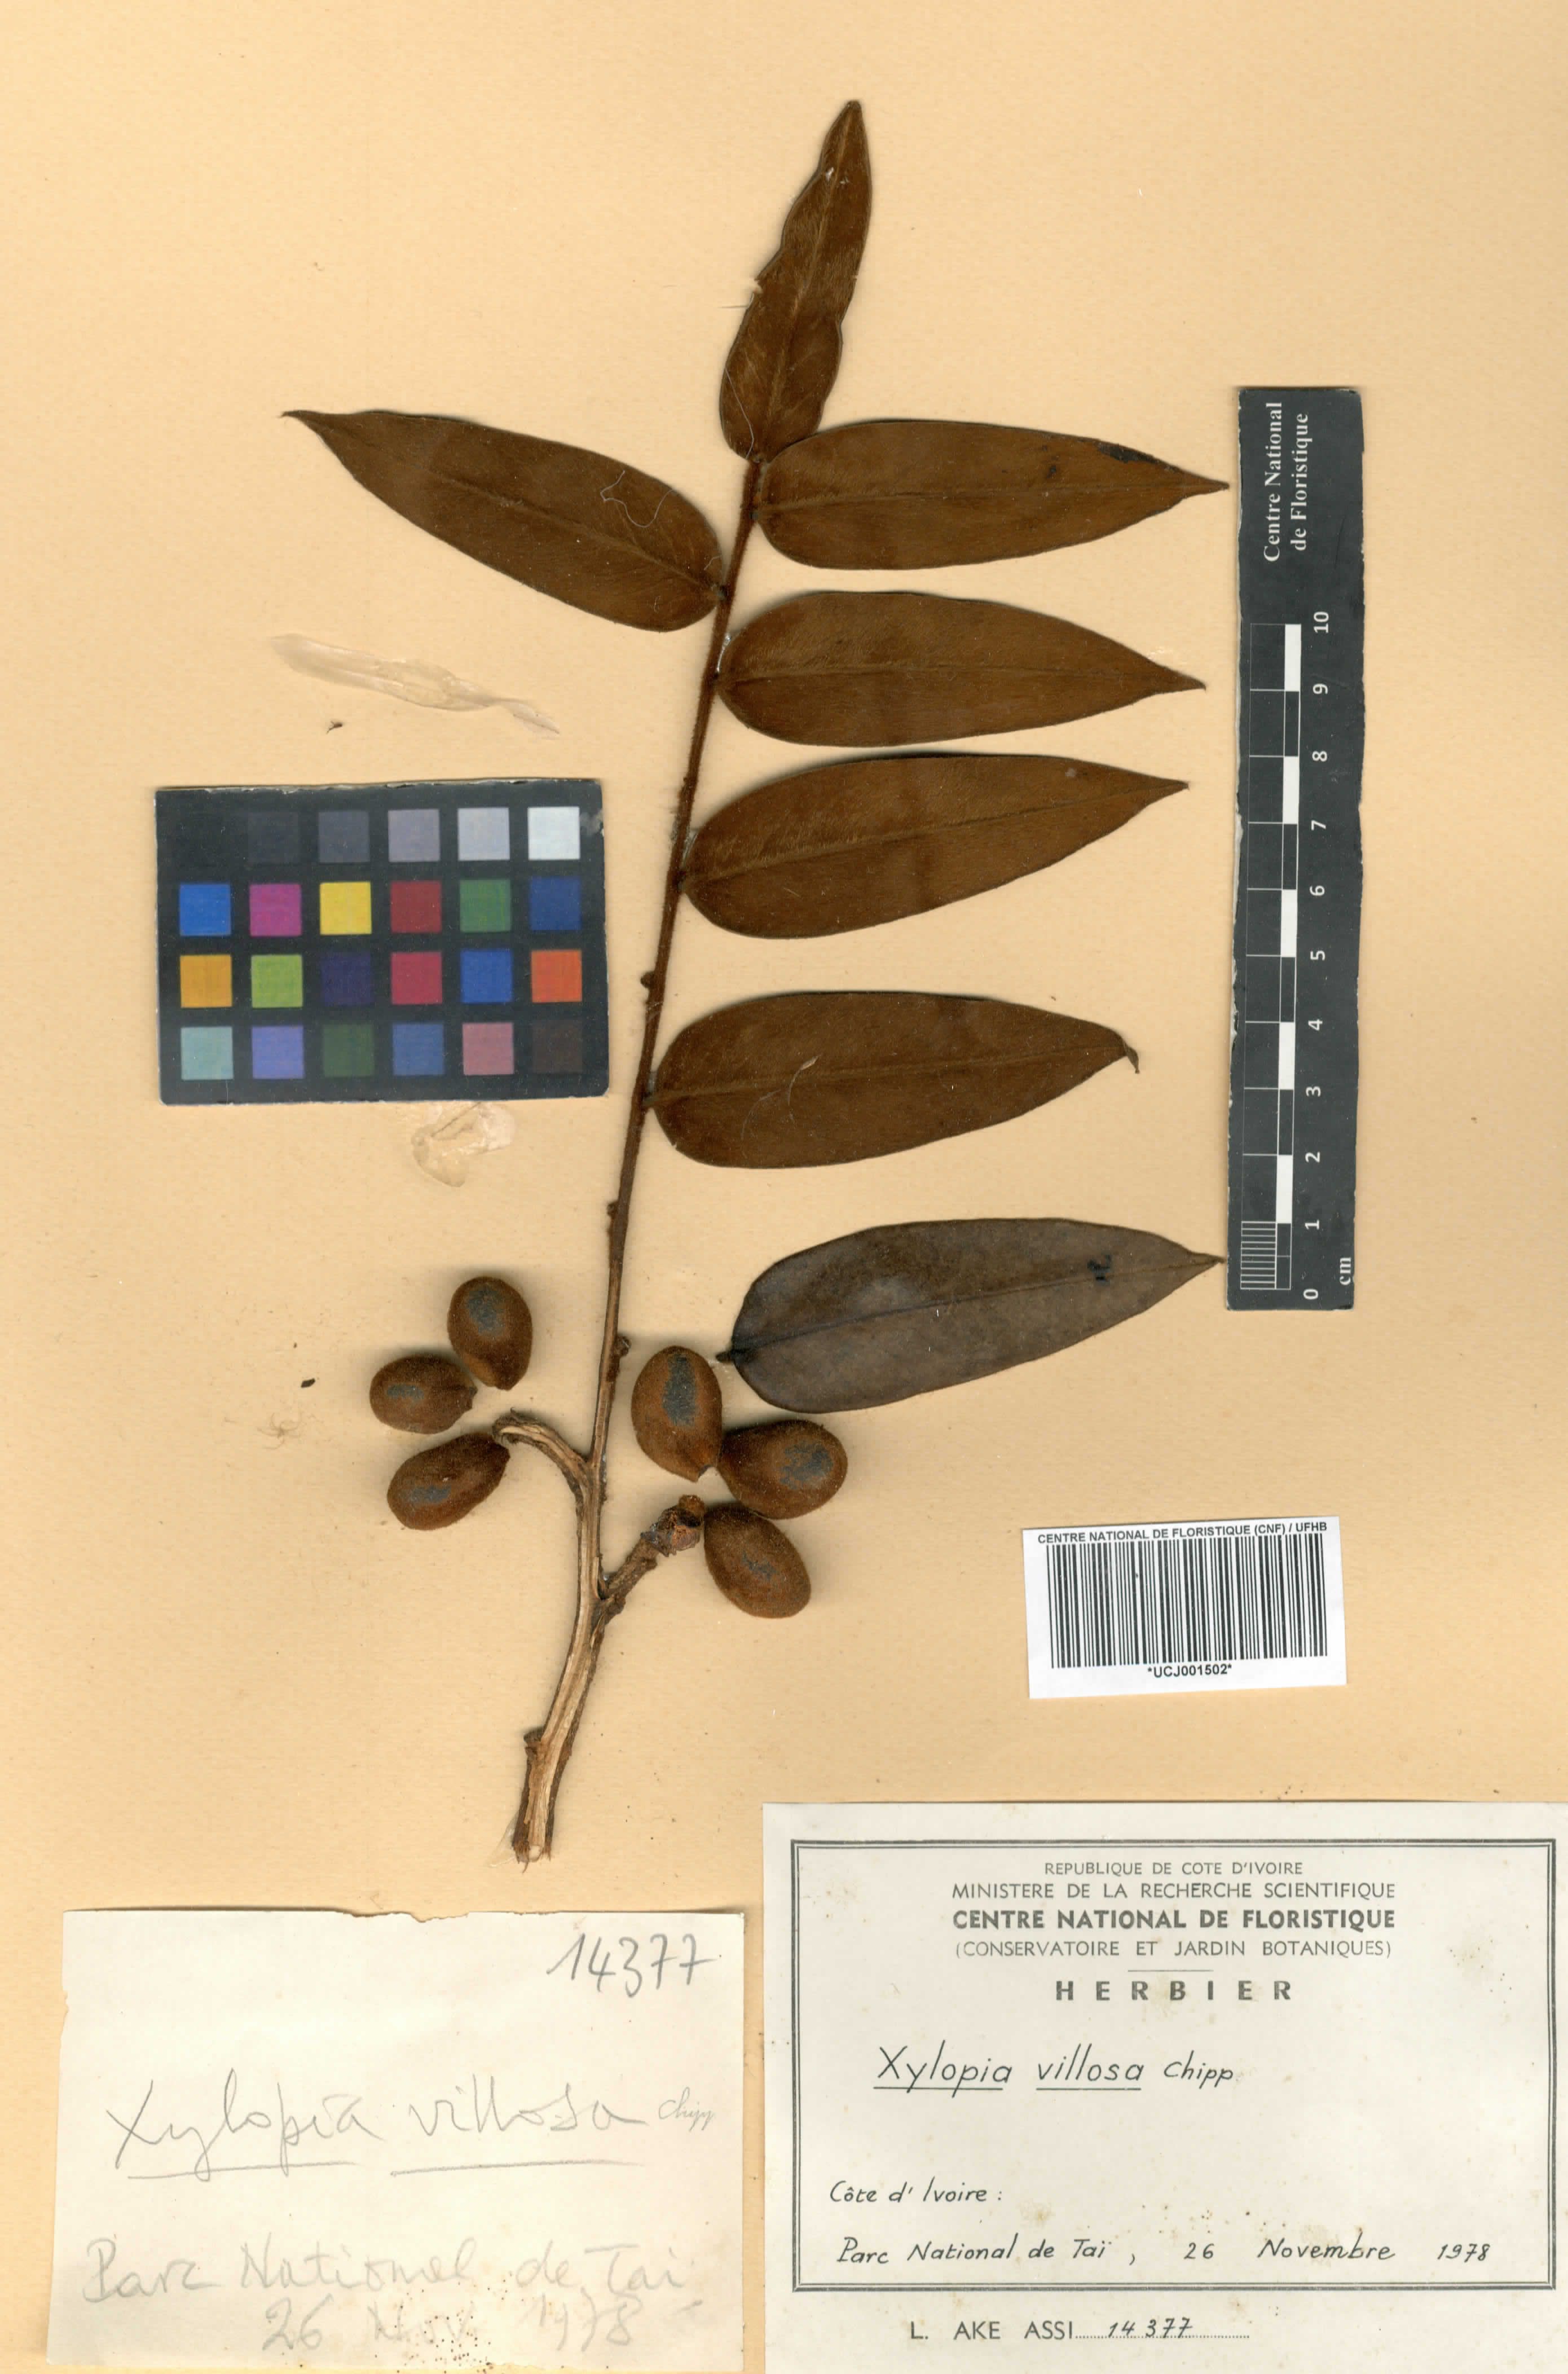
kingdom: Plantae
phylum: Tracheophyta
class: Magnoliopsida
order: Magnoliales
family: Annonaceae
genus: Xylopia
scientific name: Xylopia villosa
